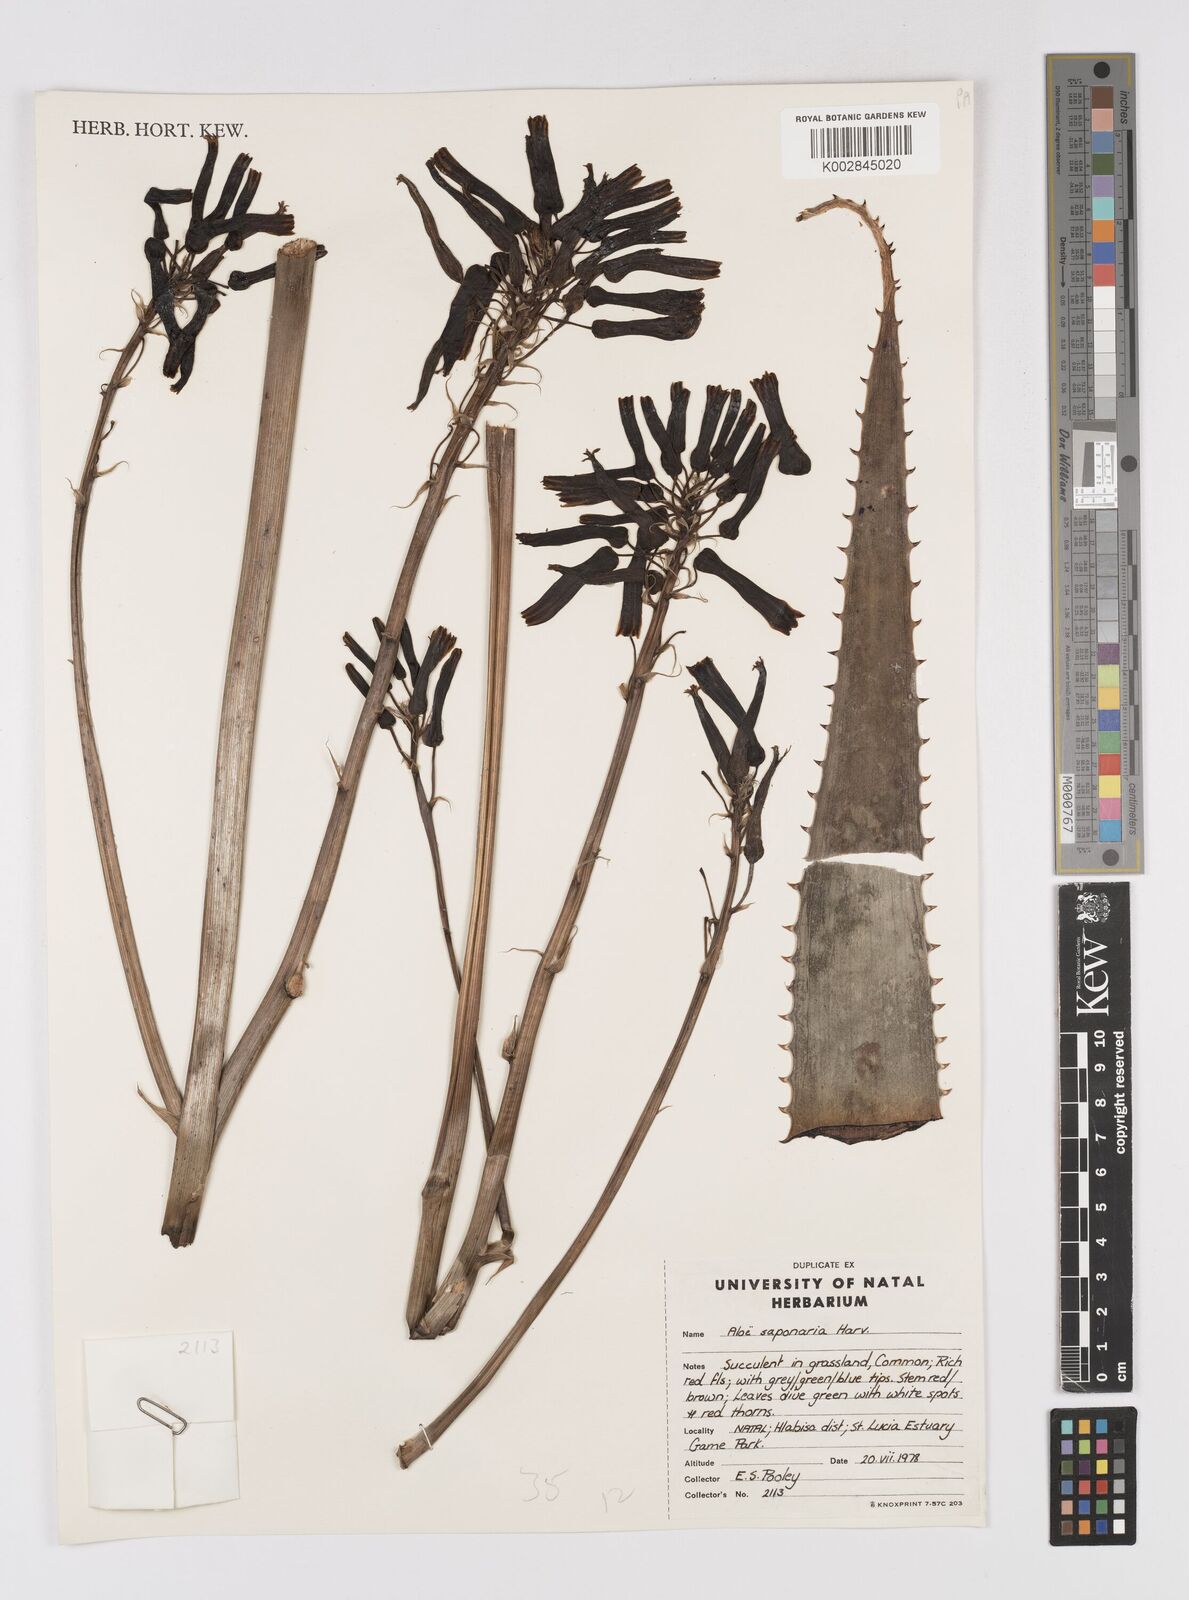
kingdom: Plantae
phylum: Tracheophyta
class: Liliopsida
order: Asparagales
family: Asphodelaceae
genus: Aloe
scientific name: Aloe microstigma
